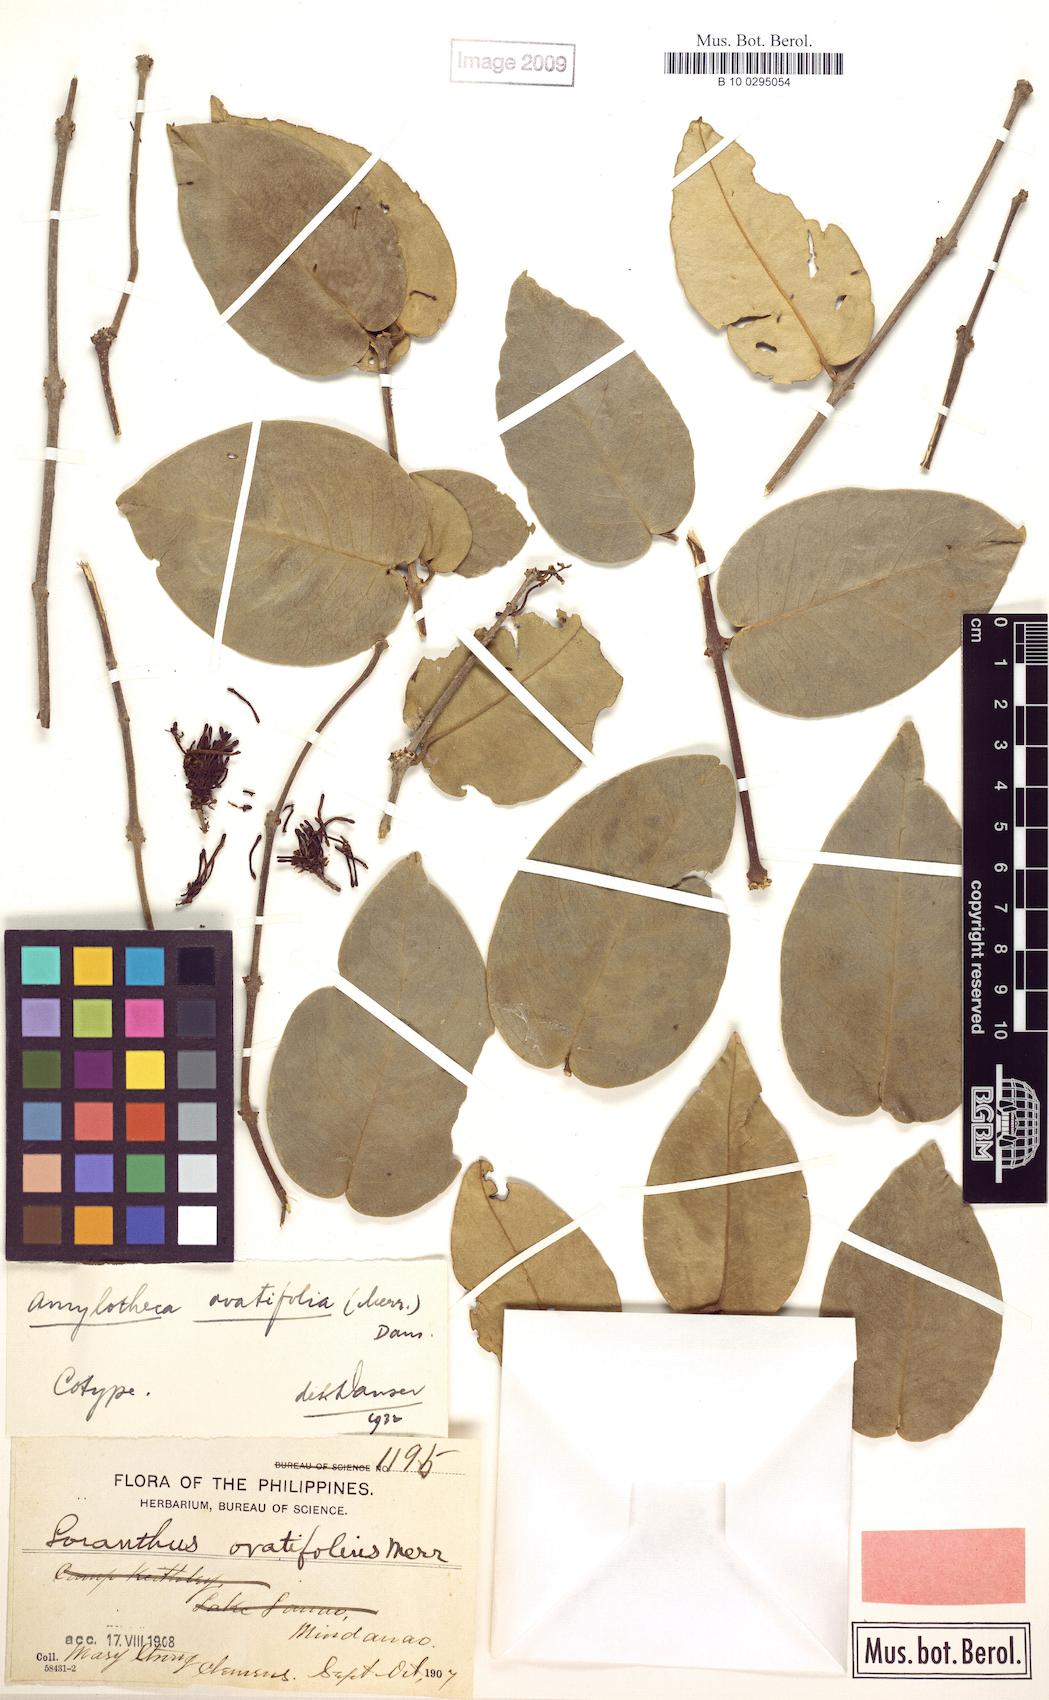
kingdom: Plantae
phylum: Tracheophyta
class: Magnoliopsida
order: Santalales
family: Loranthaceae
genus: Decaisnina
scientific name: Decaisnina ovatifolia
